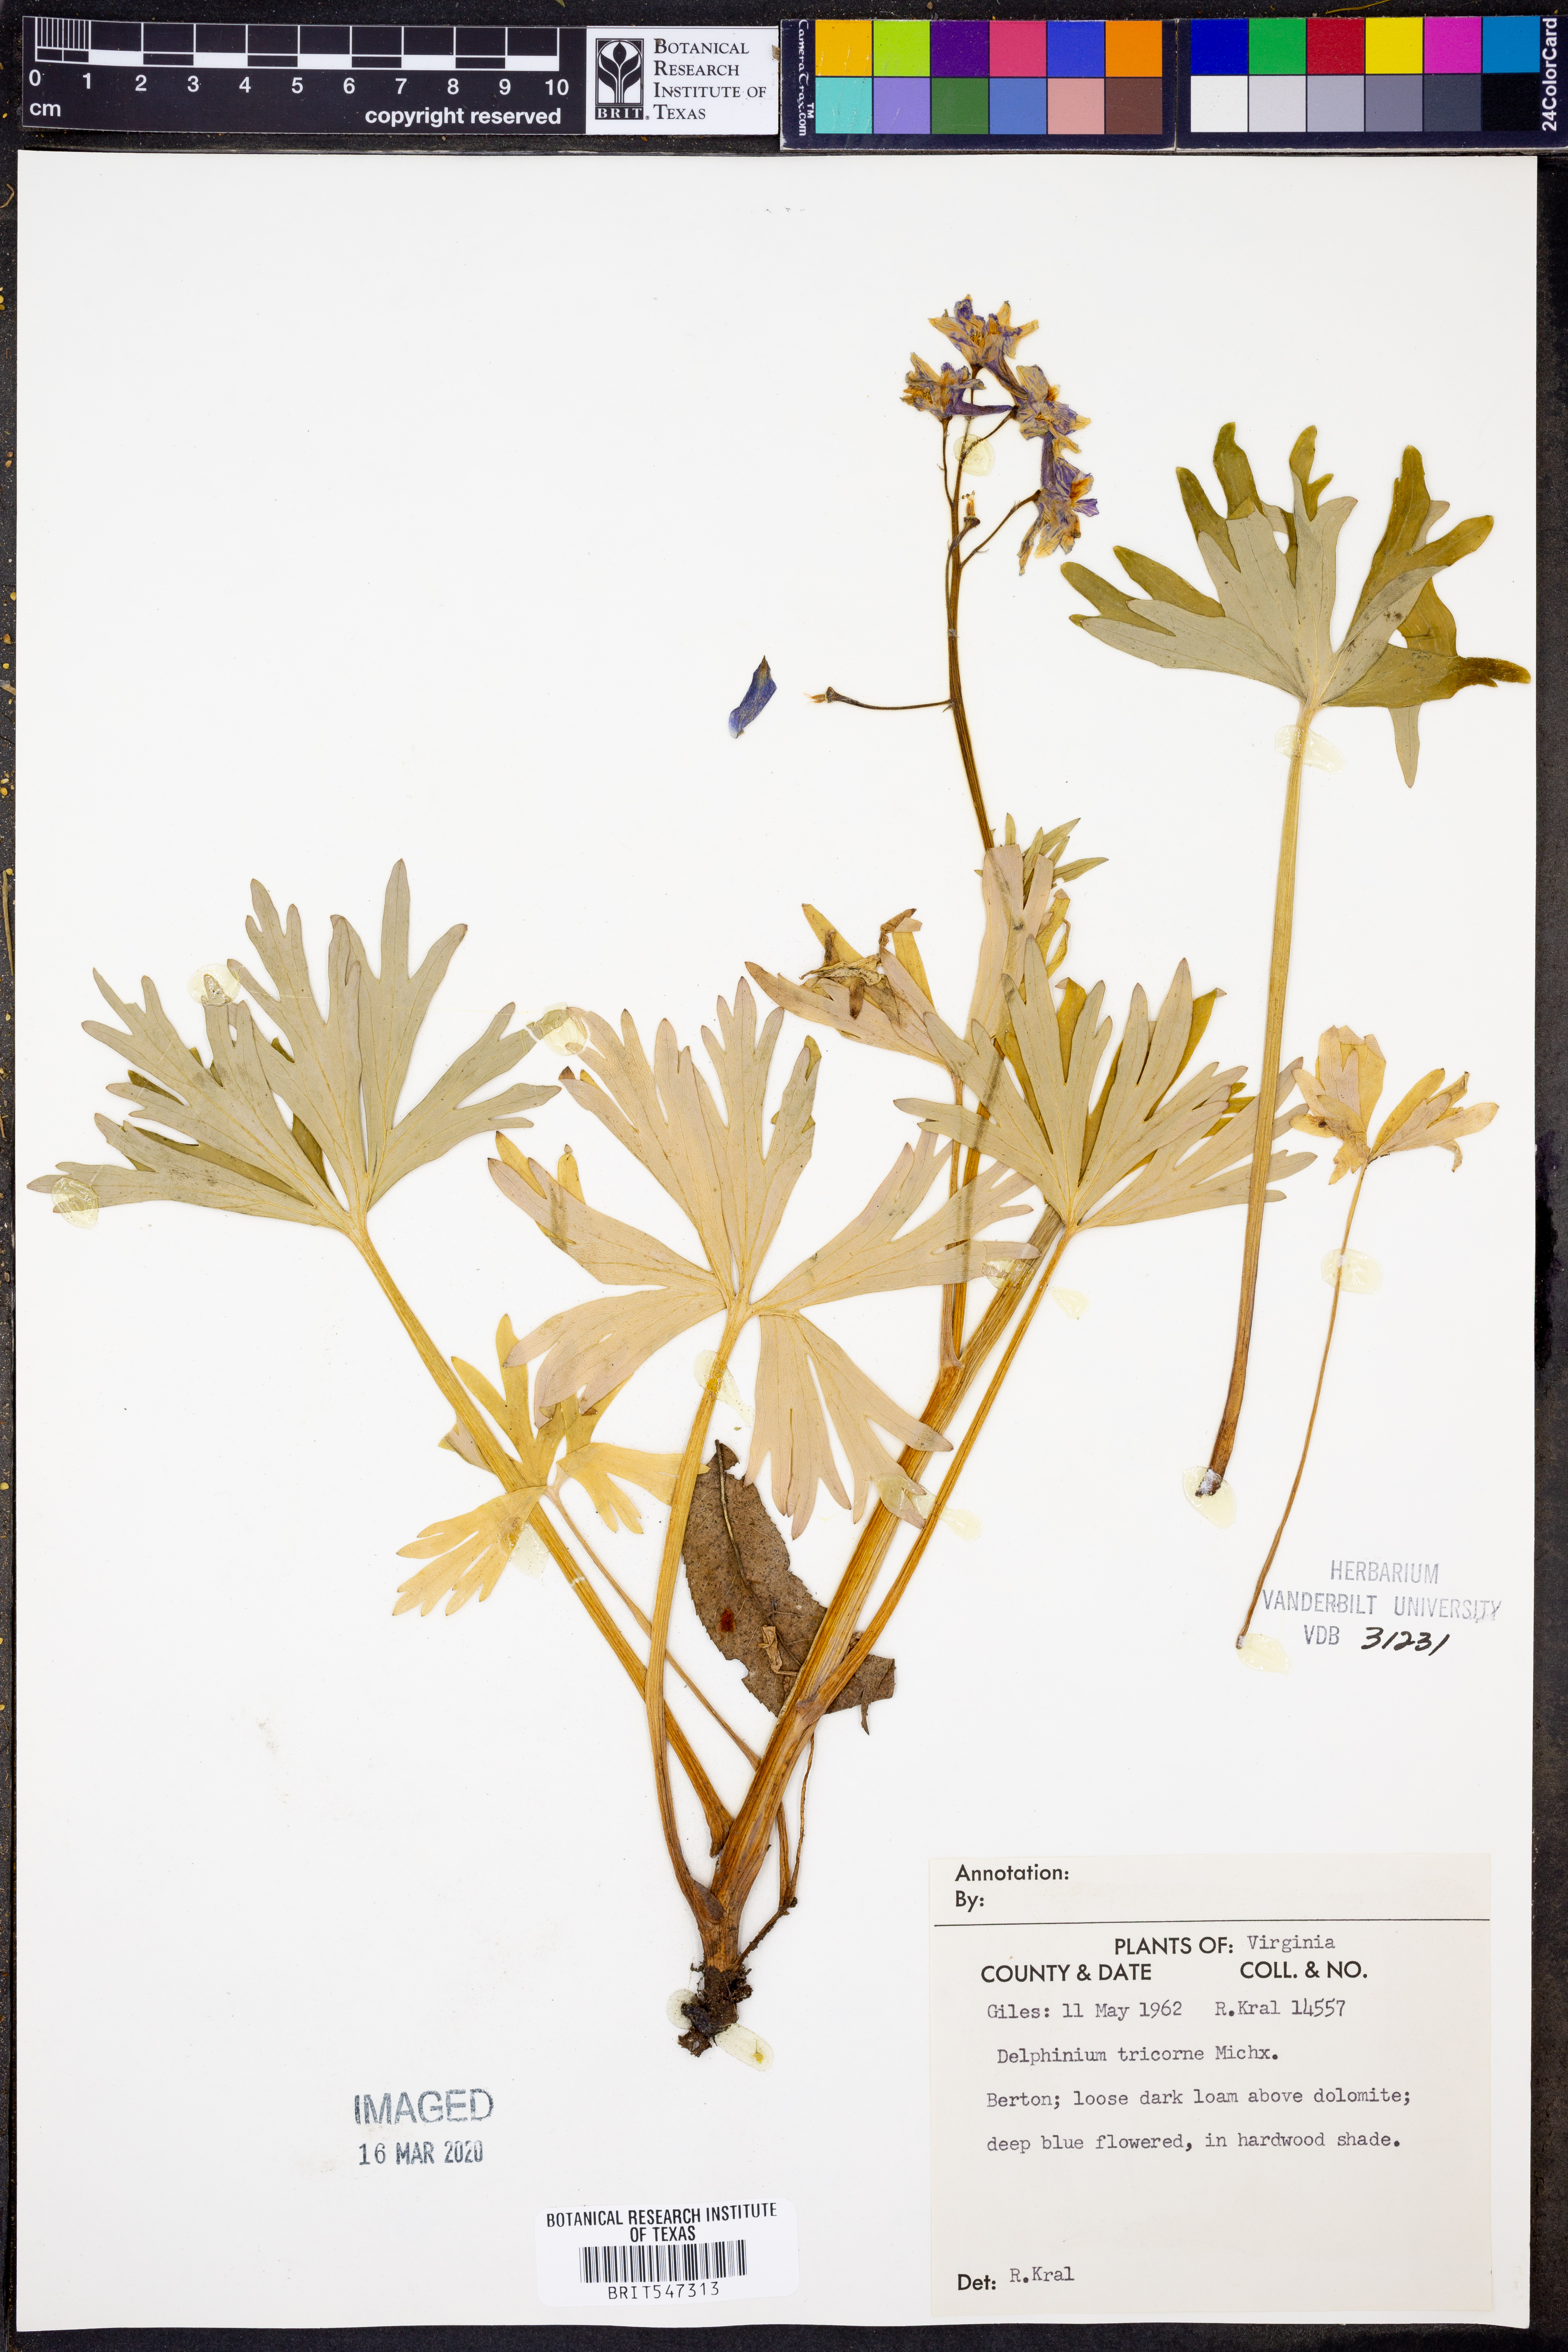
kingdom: Plantae
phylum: Tracheophyta
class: Magnoliopsida
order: Ranunculales
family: Ranunculaceae
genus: Delphinium
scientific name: Delphinium tricorne
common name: Dwarf larkspur
